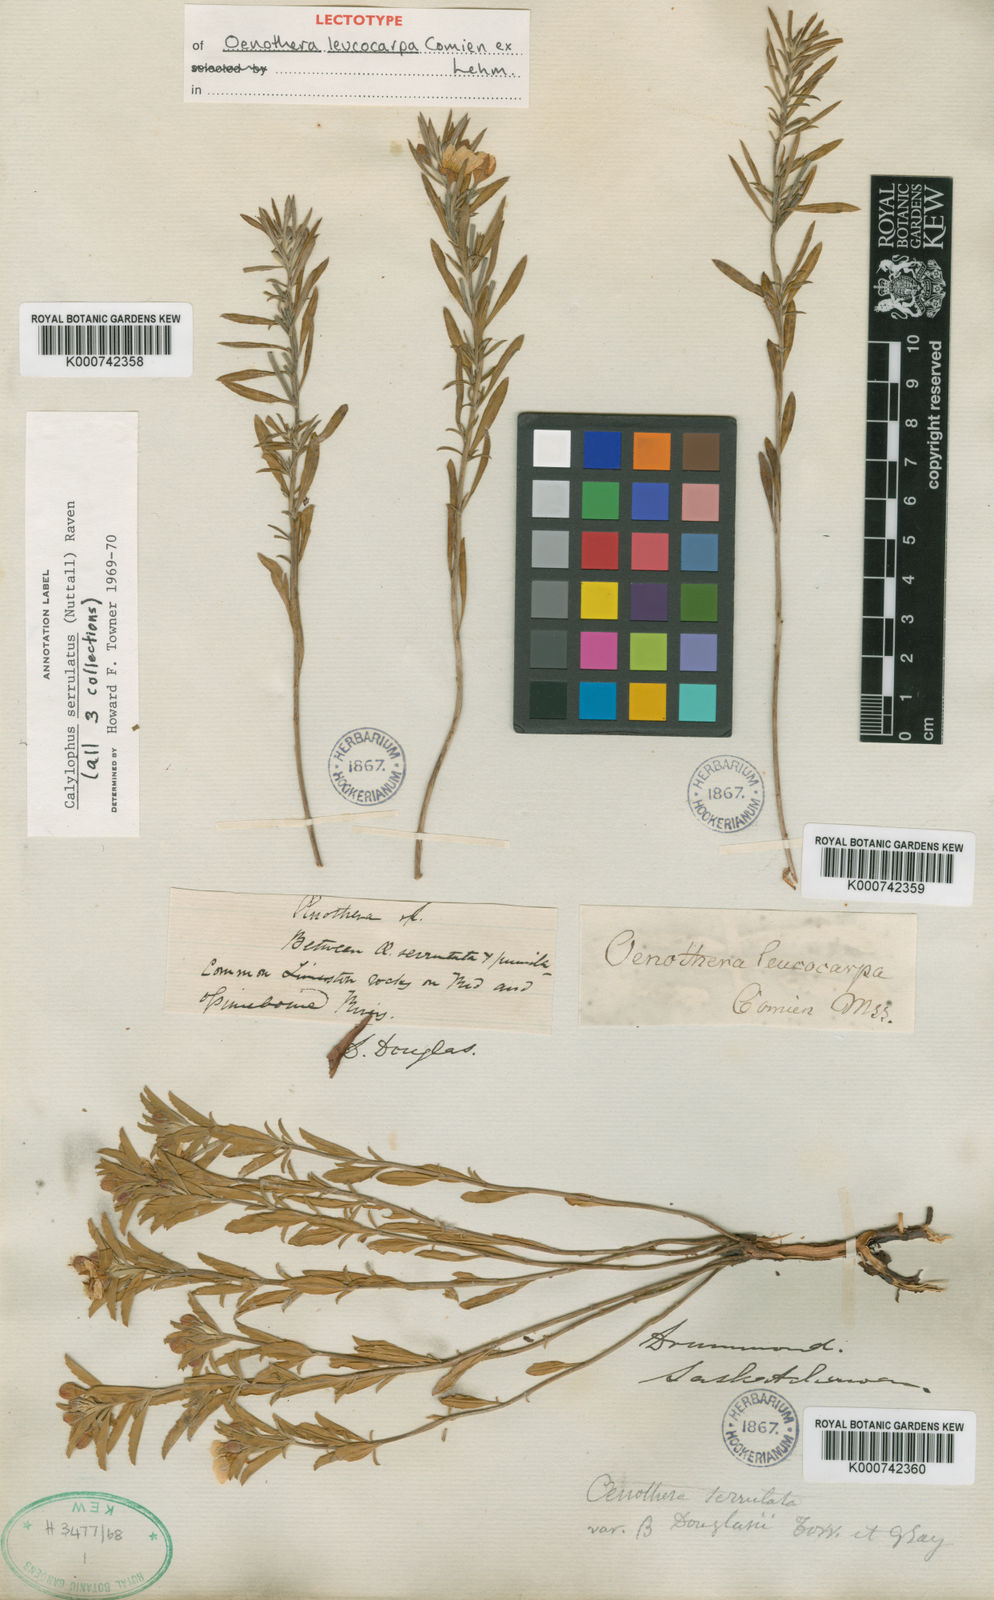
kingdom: Plantae
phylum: Tracheophyta
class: Magnoliopsida
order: Myrtales
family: Onagraceae
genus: Oenothera
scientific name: Oenothera serrulata
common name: Half-shrub calylophus
